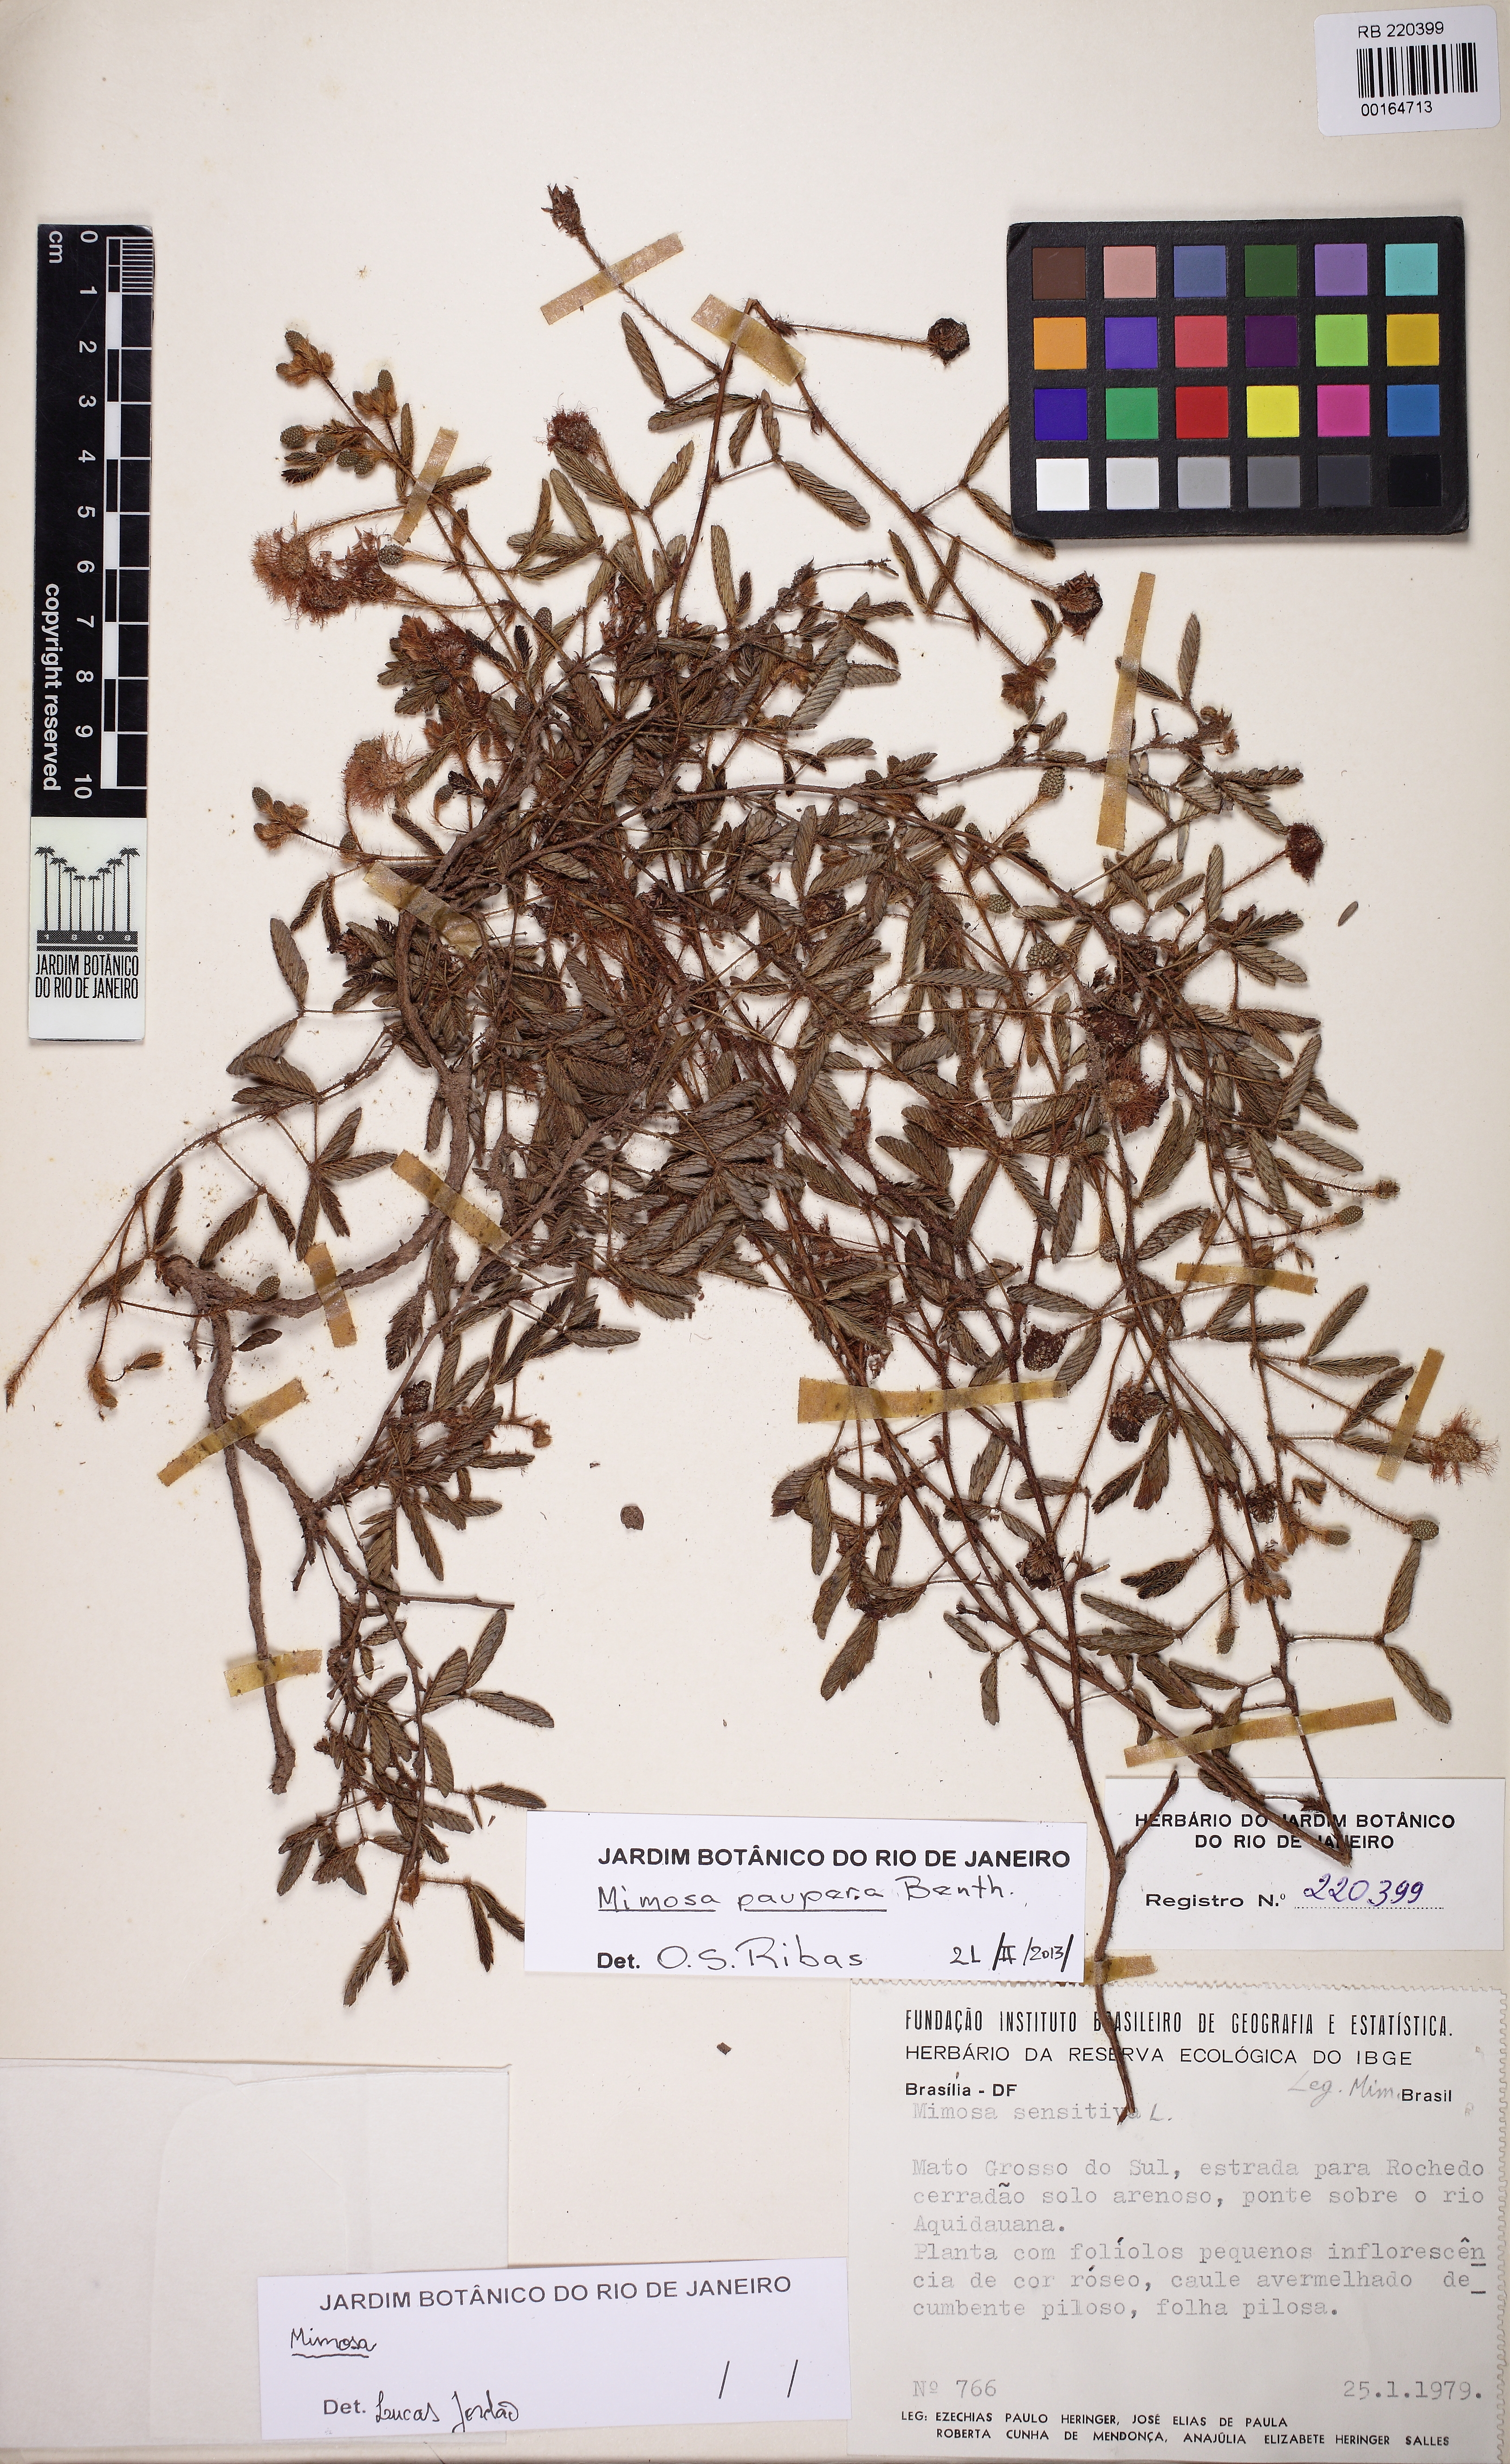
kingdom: Plantae
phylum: Tracheophyta
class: Magnoliopsida
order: Fabales
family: Fabaceae
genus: Mimosa
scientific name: Mimosa paupera
